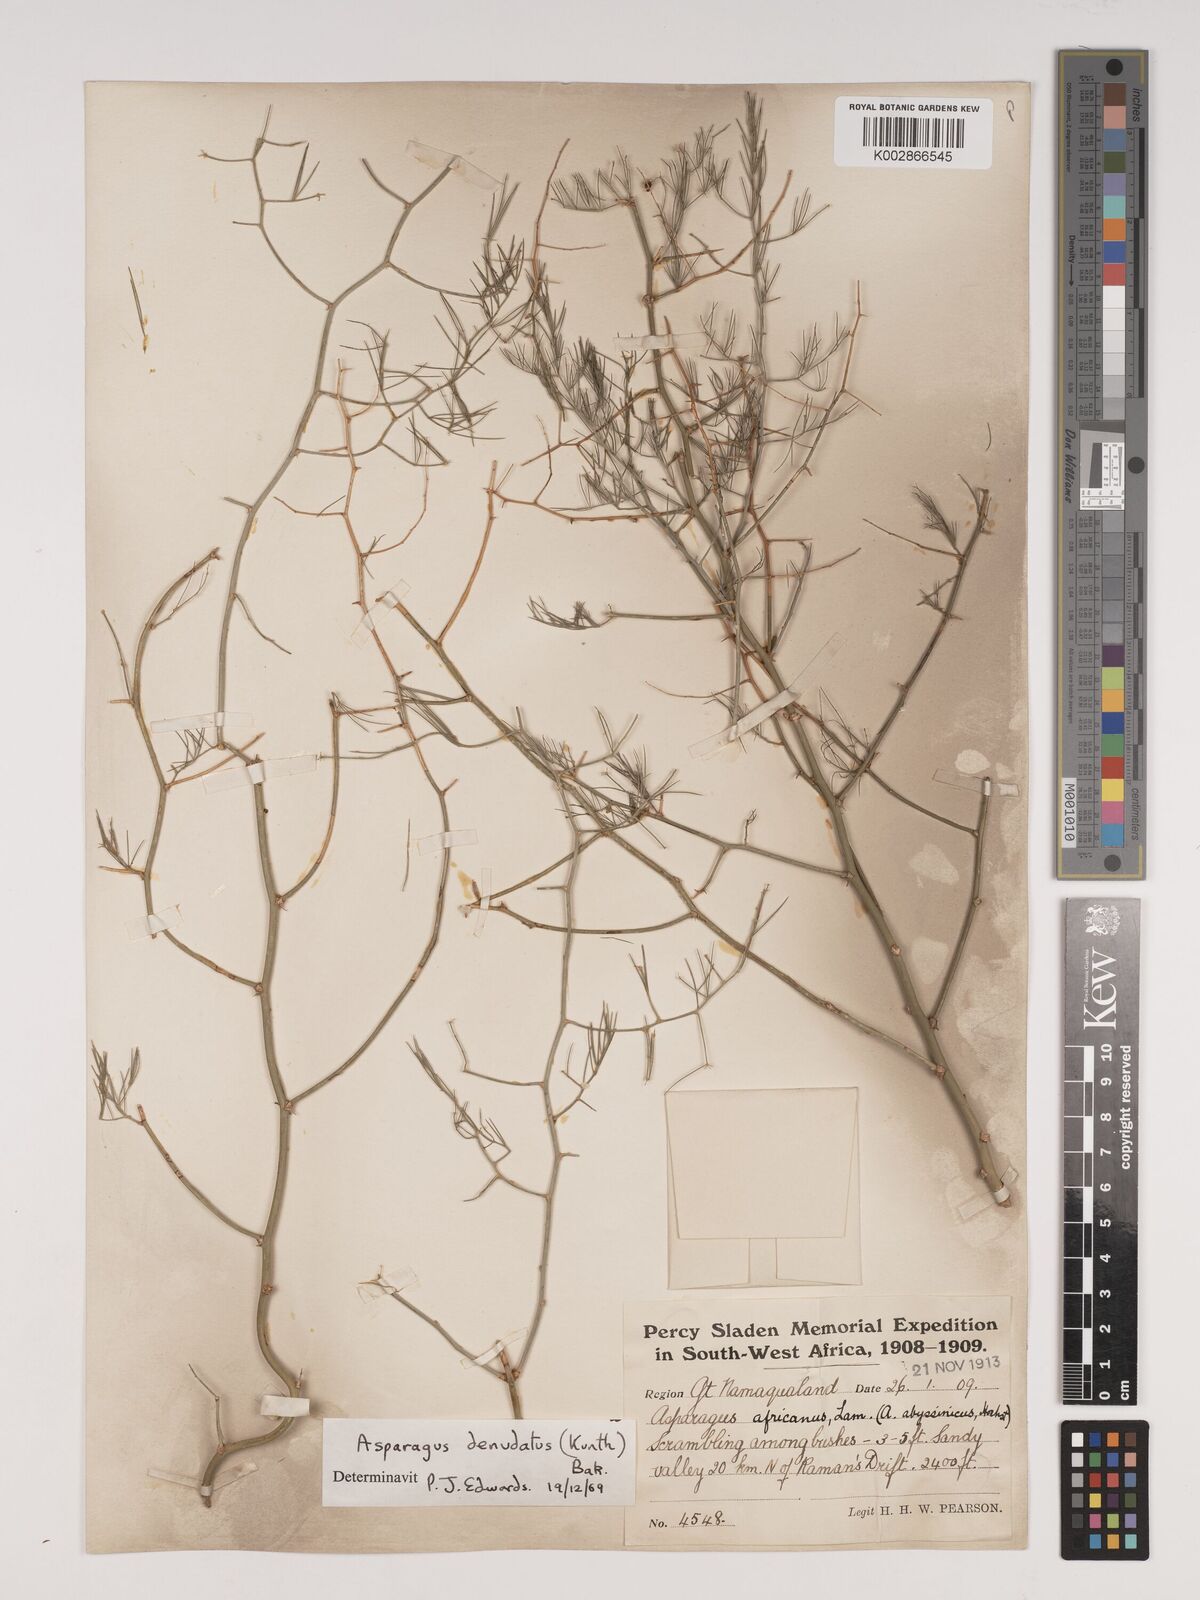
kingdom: Plantae
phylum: Tracheophyta
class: Liliopsida
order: Asparagales
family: Asparagaceae
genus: Asparagus
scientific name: Asparagus denudatus
